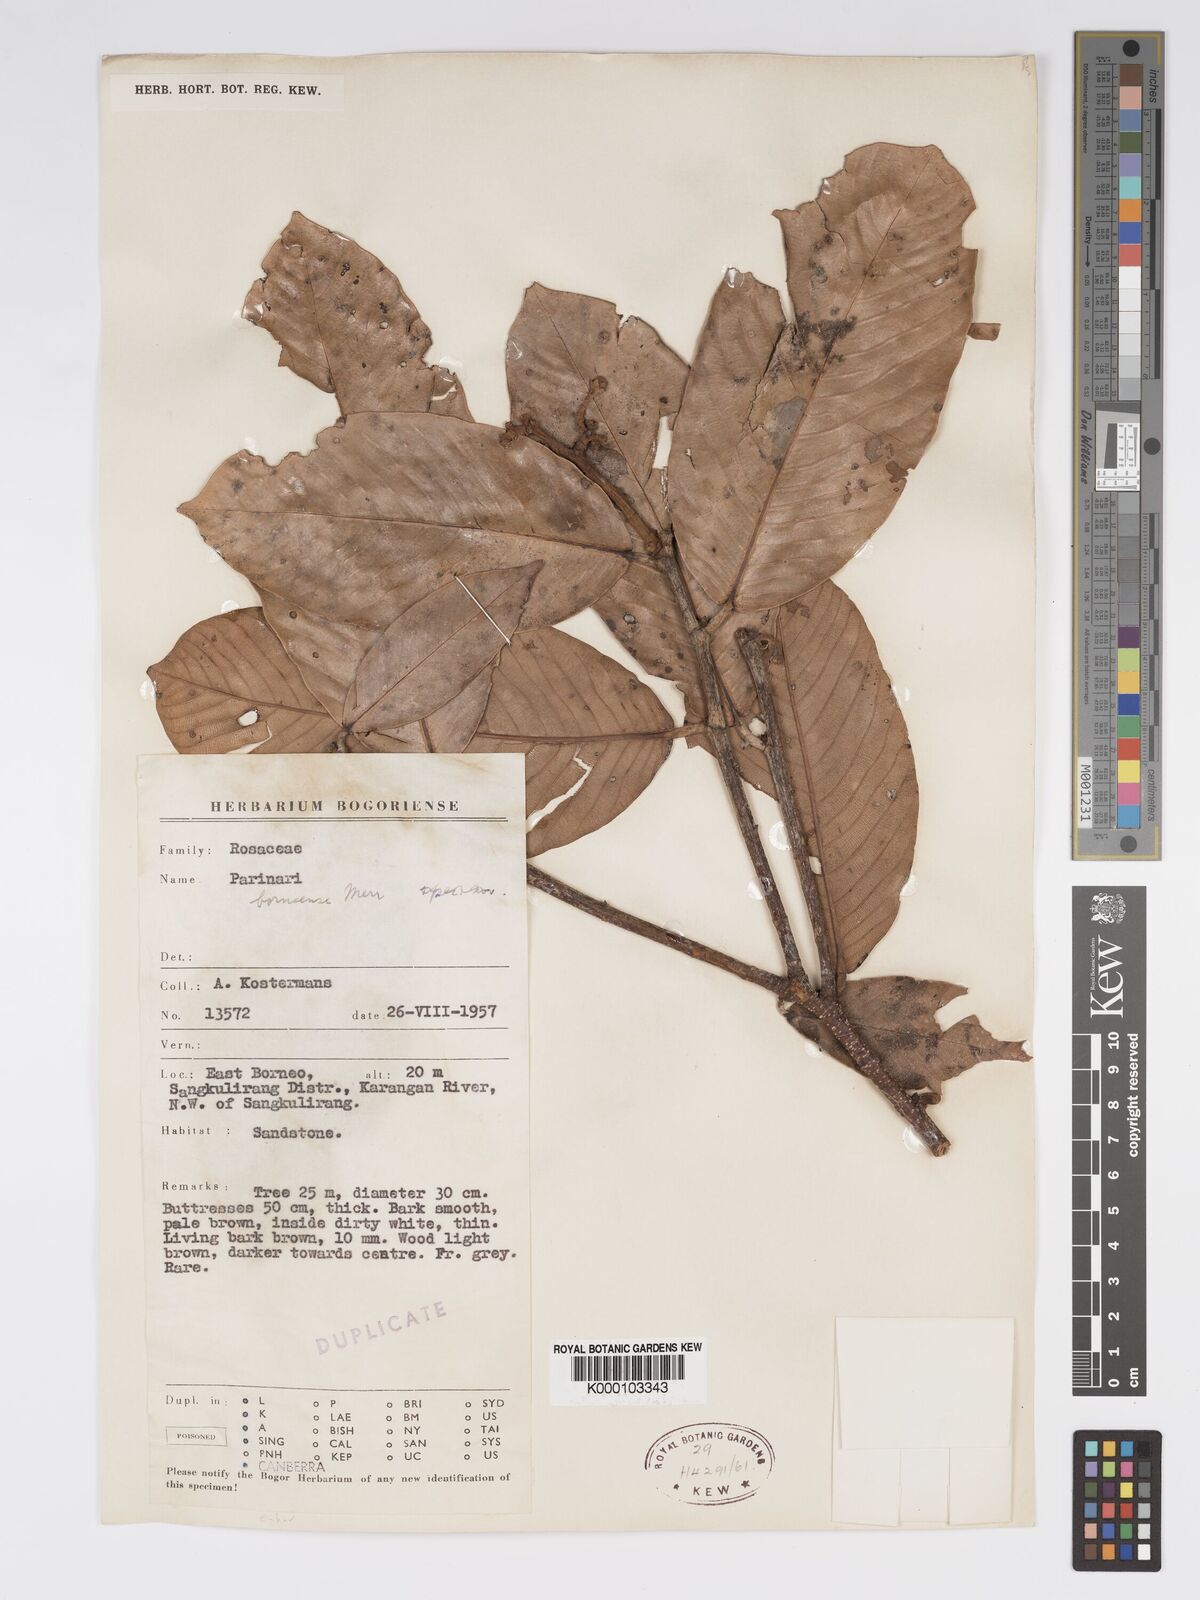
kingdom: Plantae
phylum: Tracheophyta
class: Magnoliopsida
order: Malpighiales
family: Chrysobalanaceae
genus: Parinari
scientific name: Parinari oblongifolia
